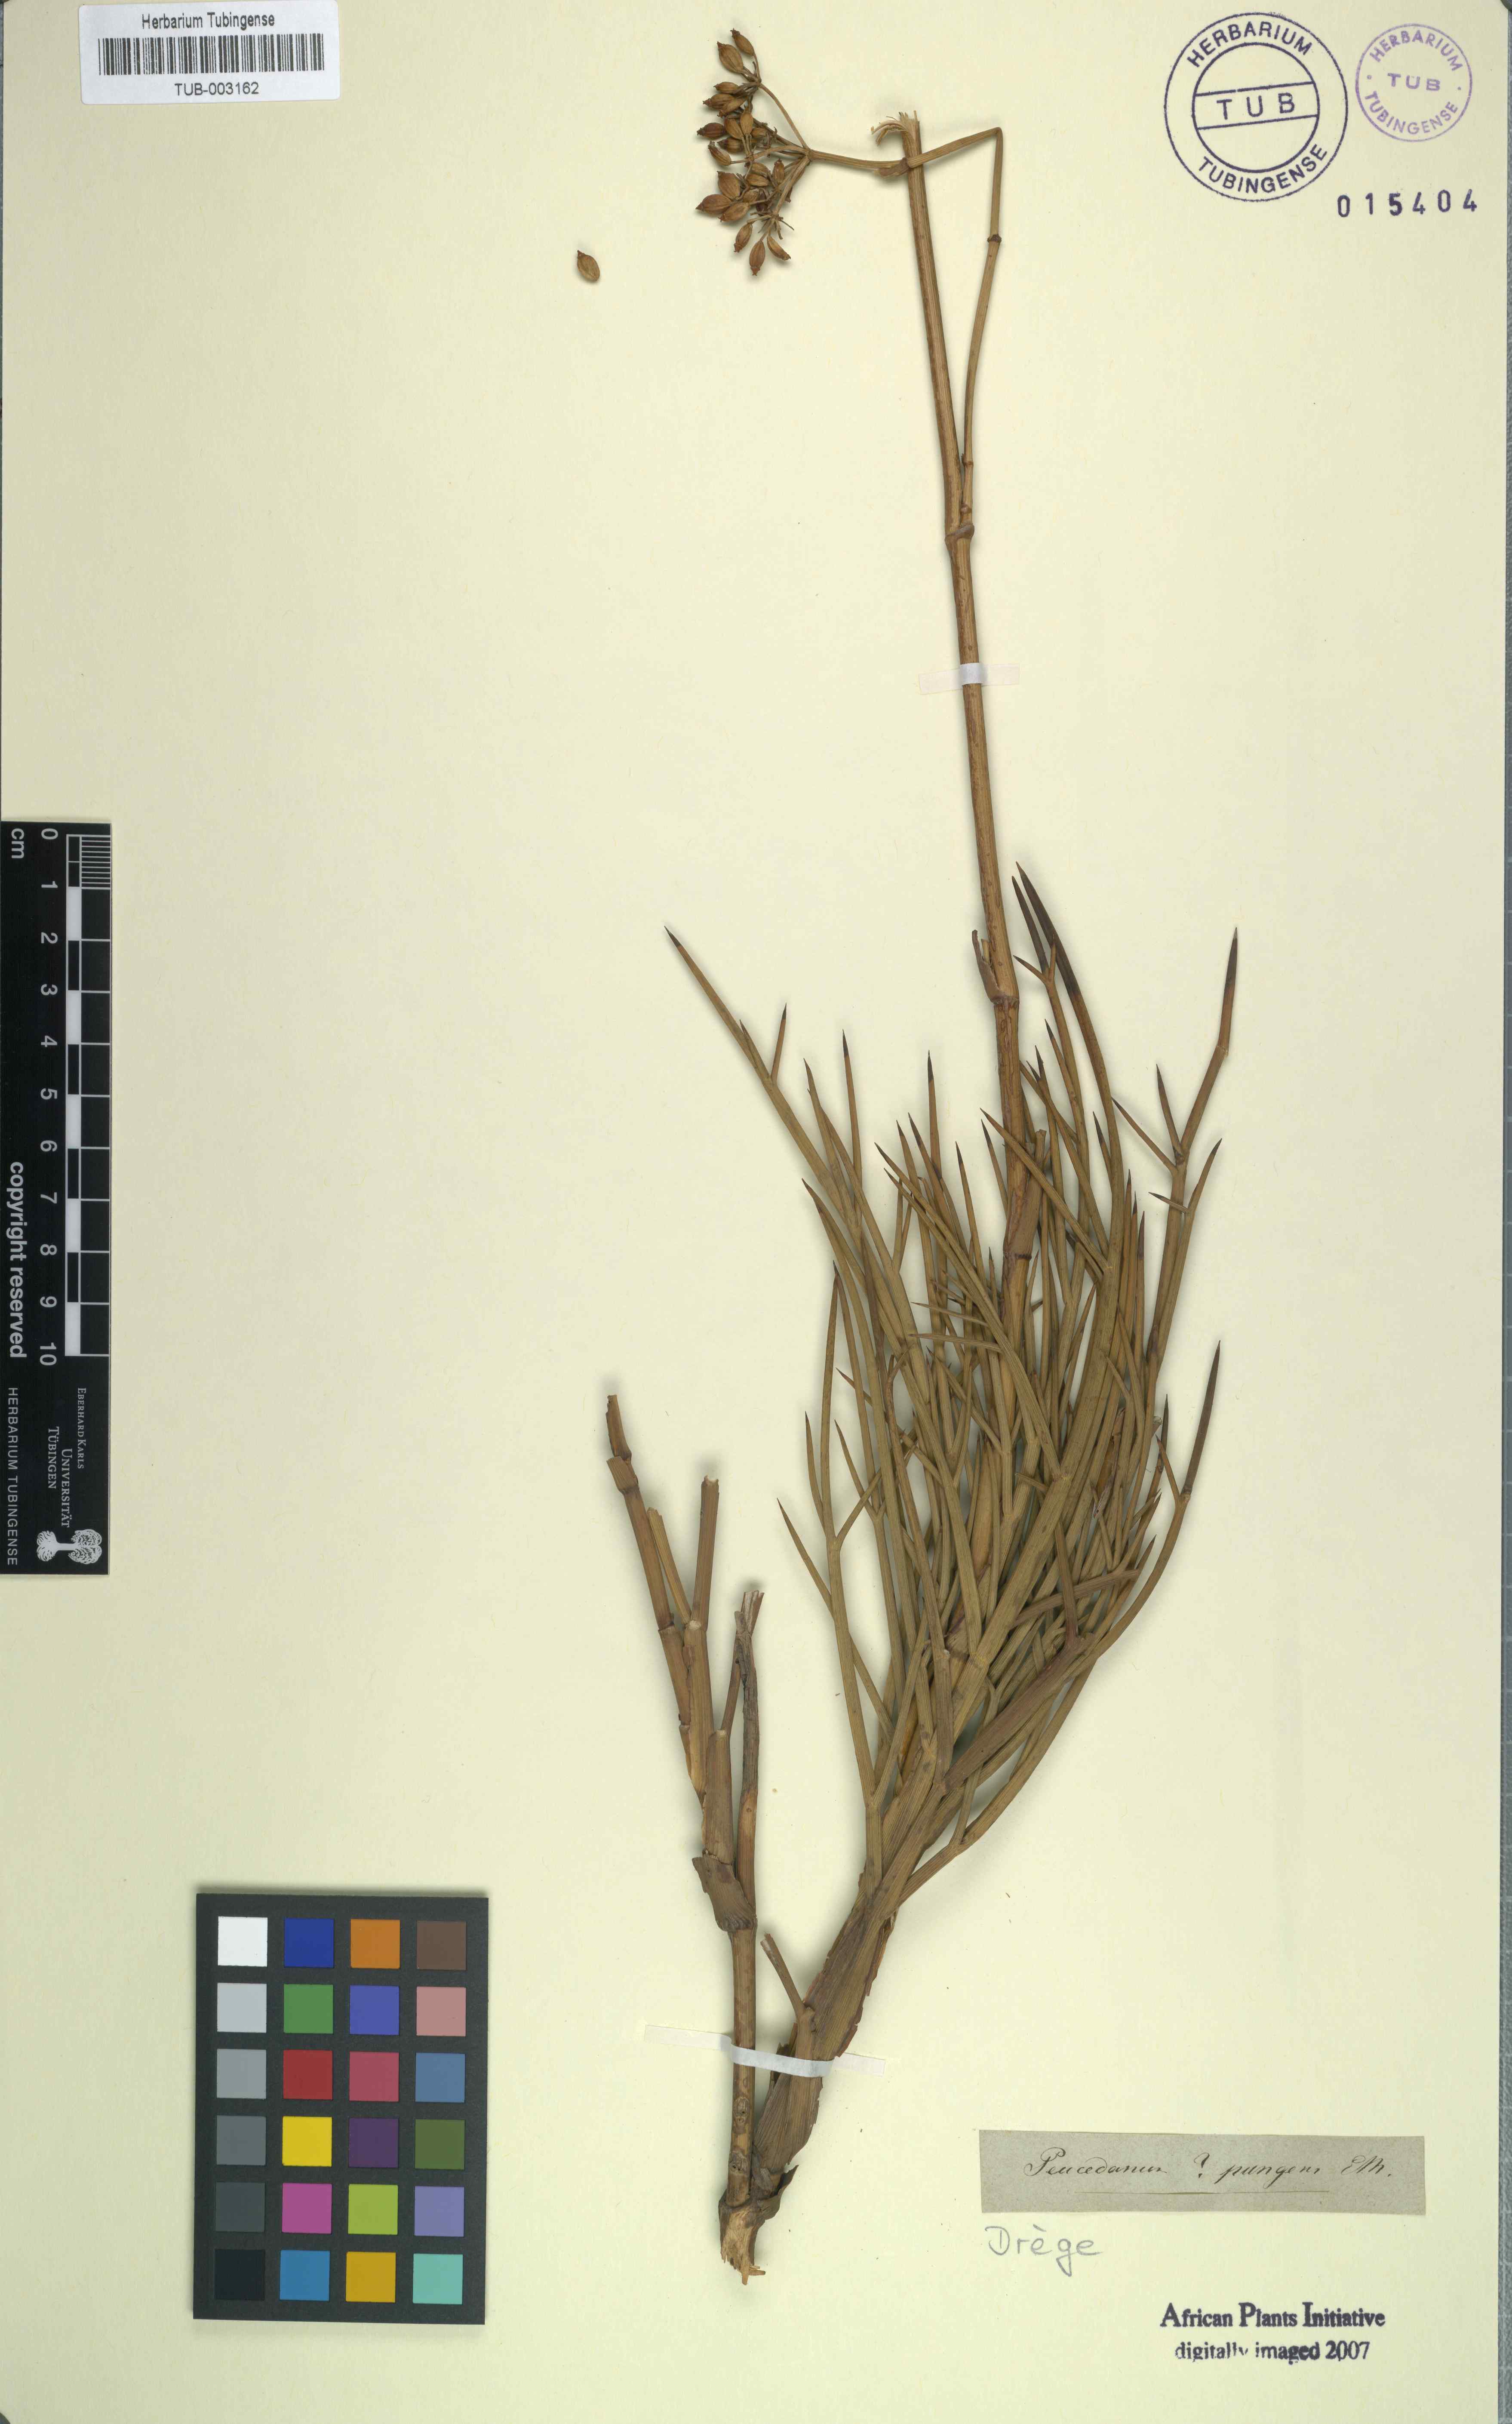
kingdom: Plantae
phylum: Tracheophyta
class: Magnoliopsida
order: Apiales
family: Apiaceae
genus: Notobubon
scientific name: Notobubon pungens
